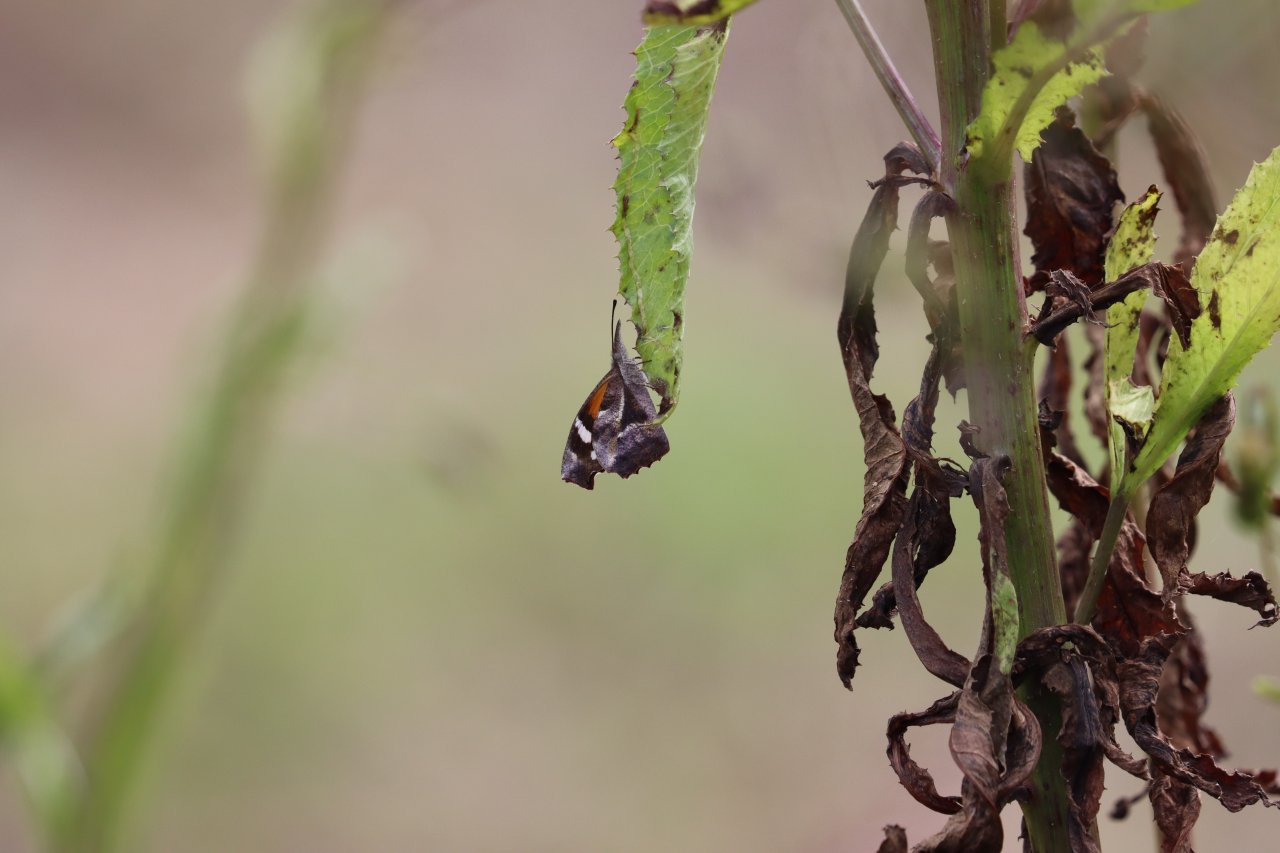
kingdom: Animalia
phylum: Arthropoda
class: Insecta
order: Lepidoptera
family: Nymphalidae
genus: Libytheana
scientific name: Libytheana carinenta
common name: American Snout
